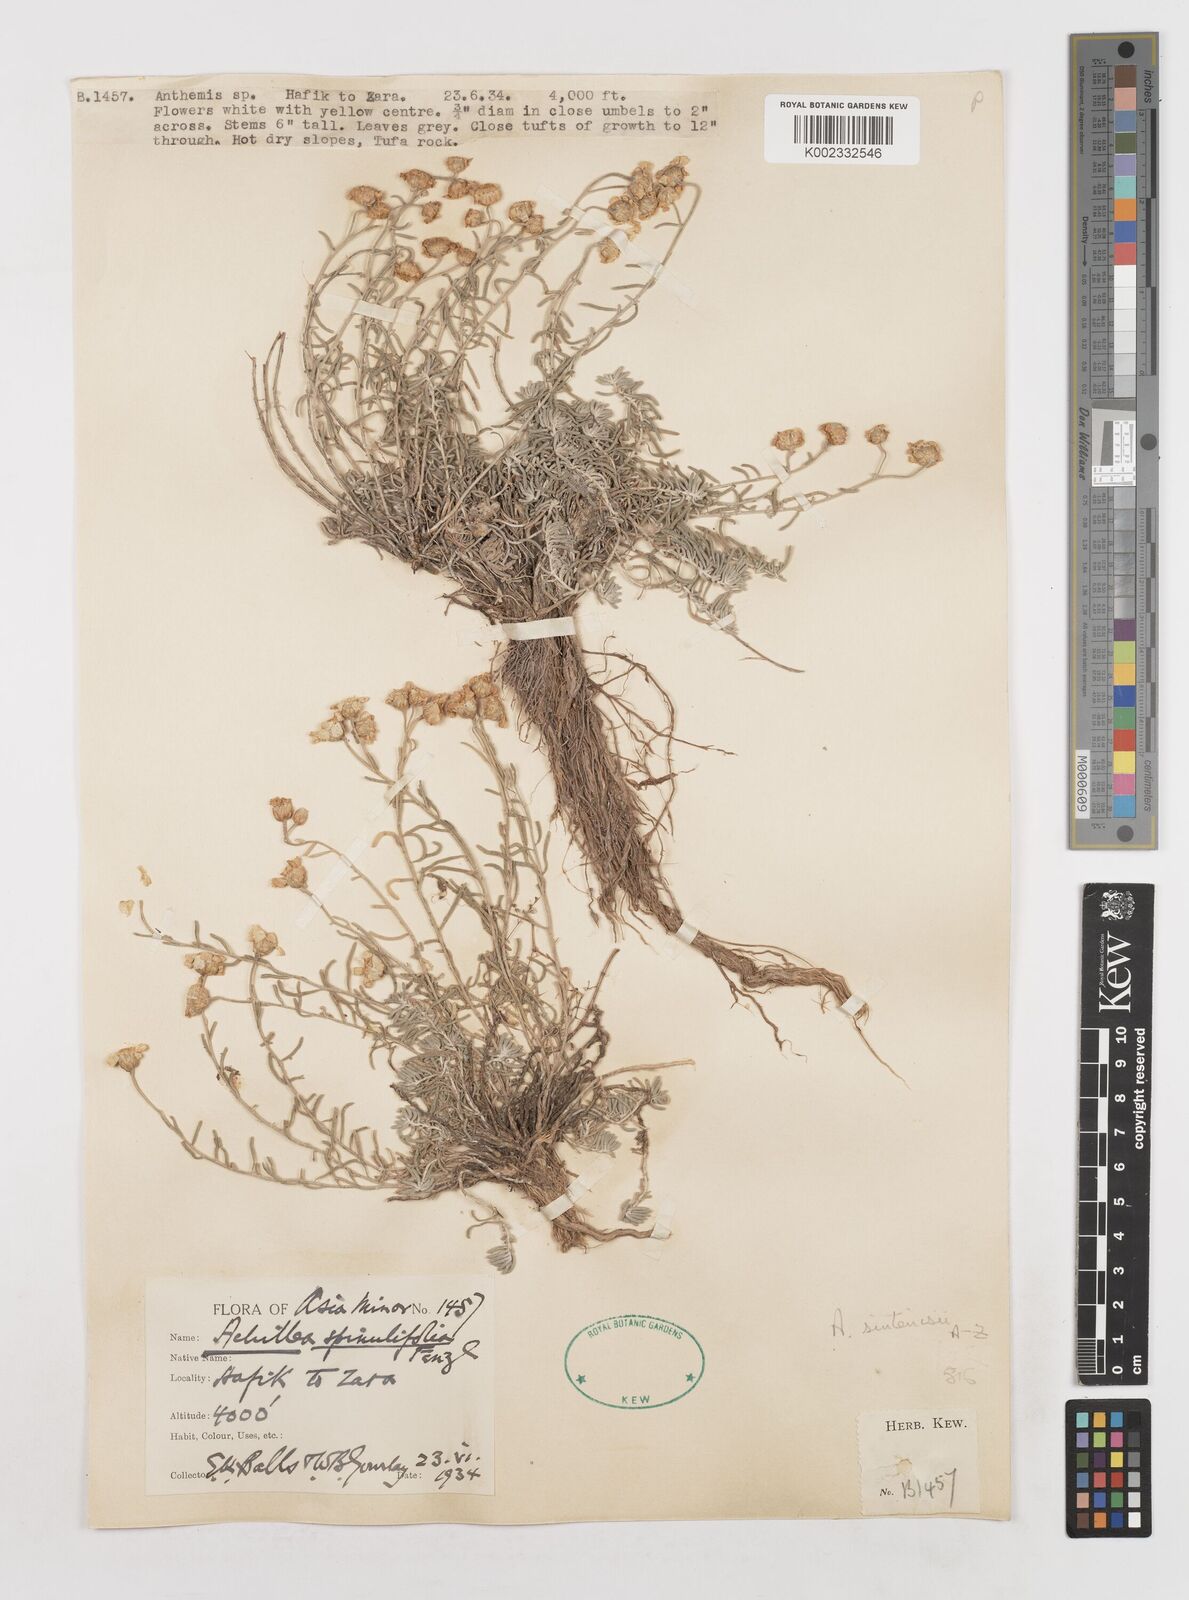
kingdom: Plantae
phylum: Tracheophyta
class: Magnoliopsida
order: Asterales
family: Asteraceae
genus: Achillea
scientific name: Achillea sintenisii
